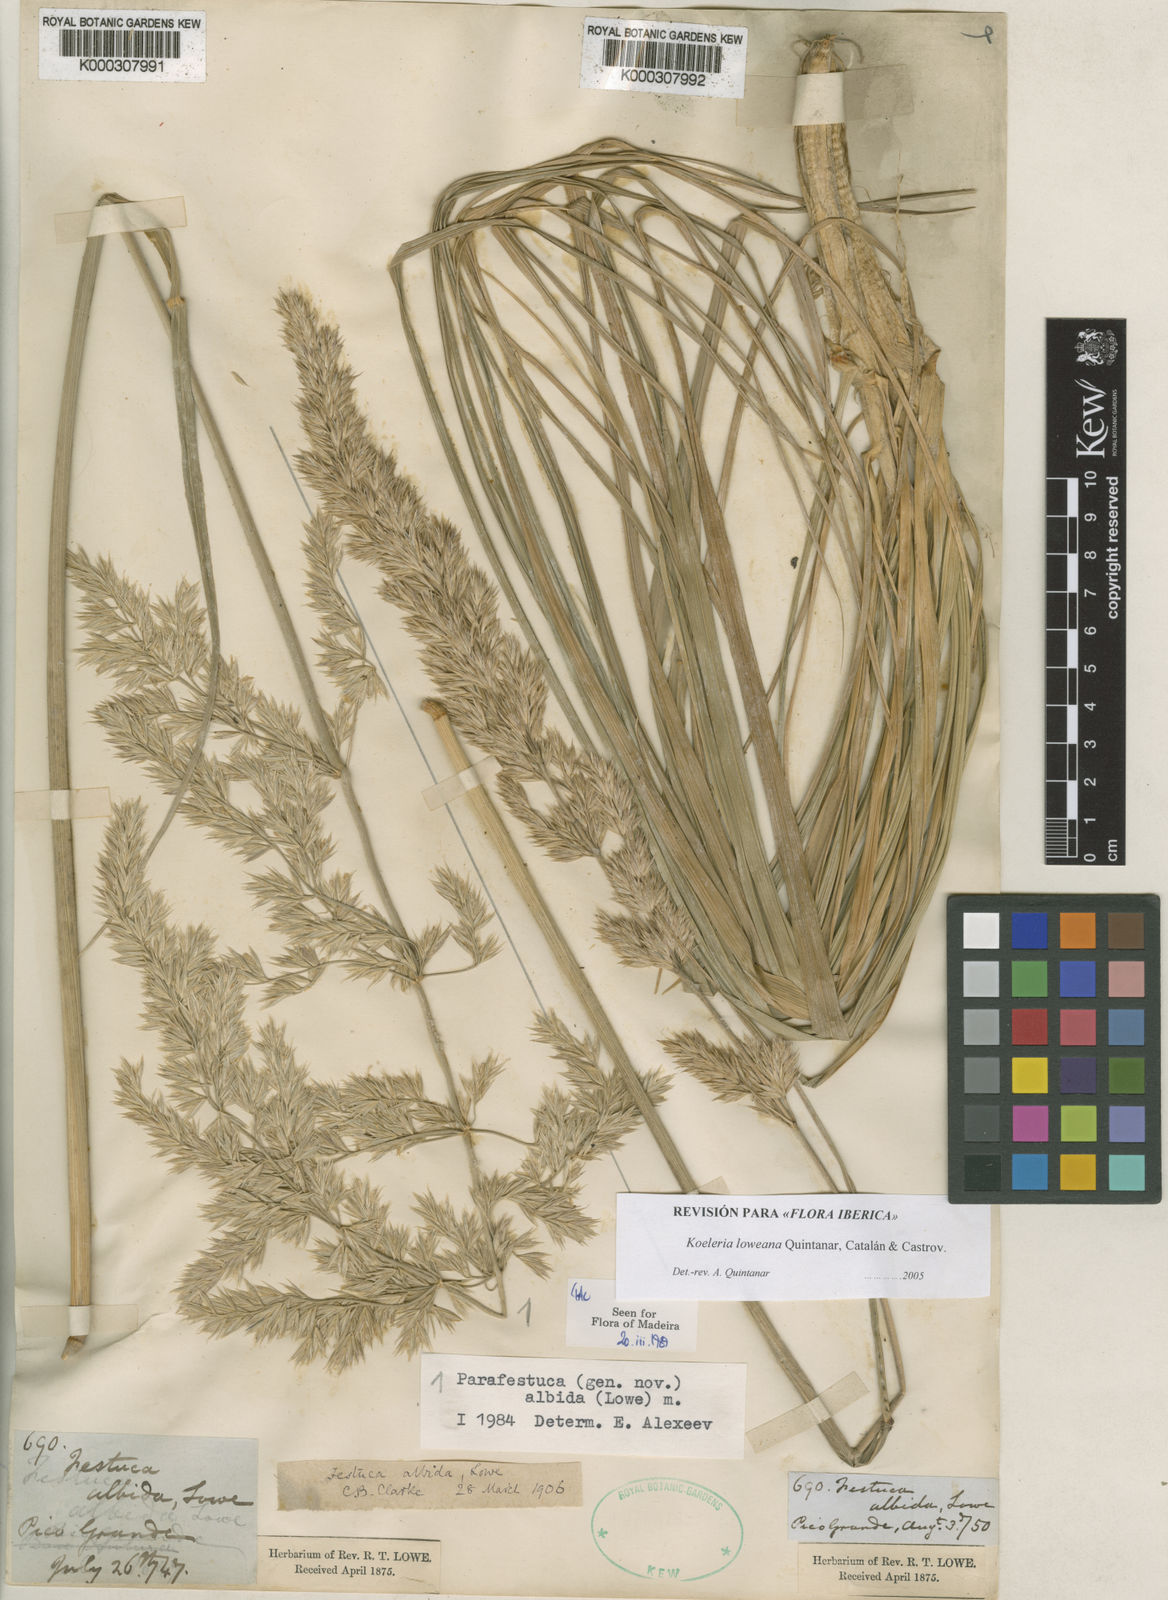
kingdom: Plantae
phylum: Tracheophyta
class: Liliopsida
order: Poales
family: Poaceae
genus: Koeleria
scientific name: Koeleria
